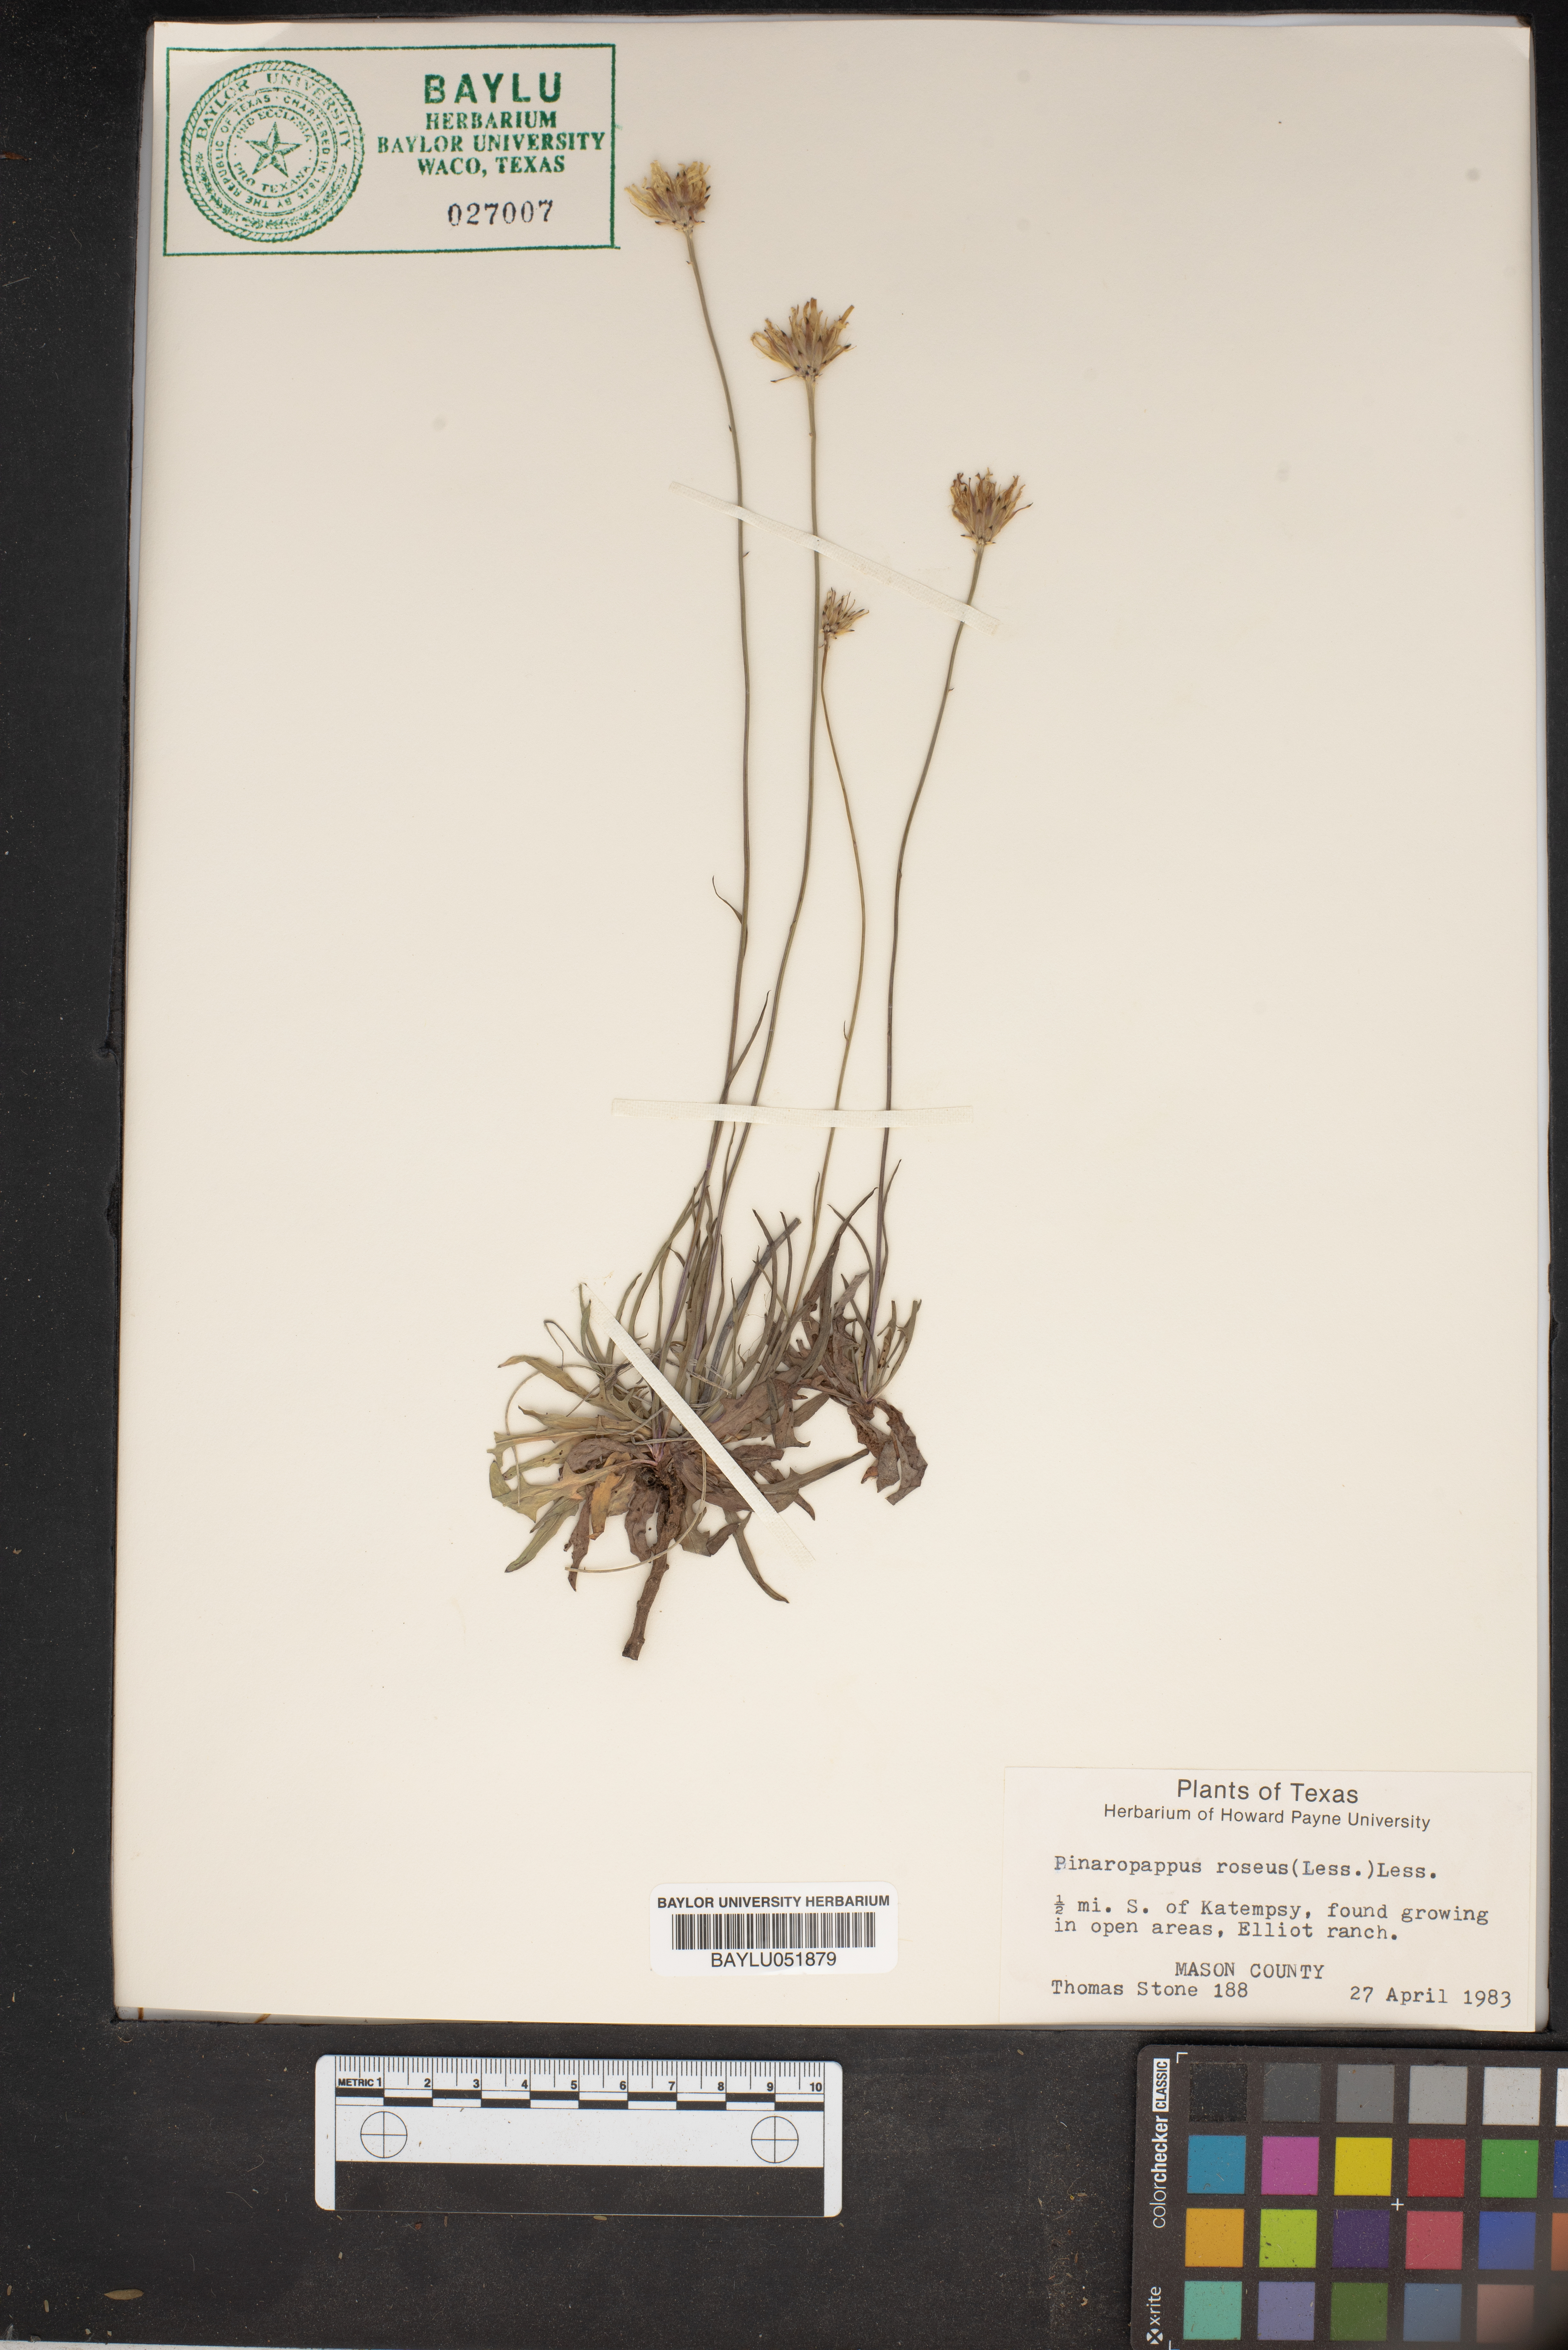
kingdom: Plantae
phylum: Tracheophyta
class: Magnoliopsida
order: Asterales
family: Asteraceae
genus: Pinaropappus
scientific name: Pinaropappus roseus
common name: Rock-lettuce
